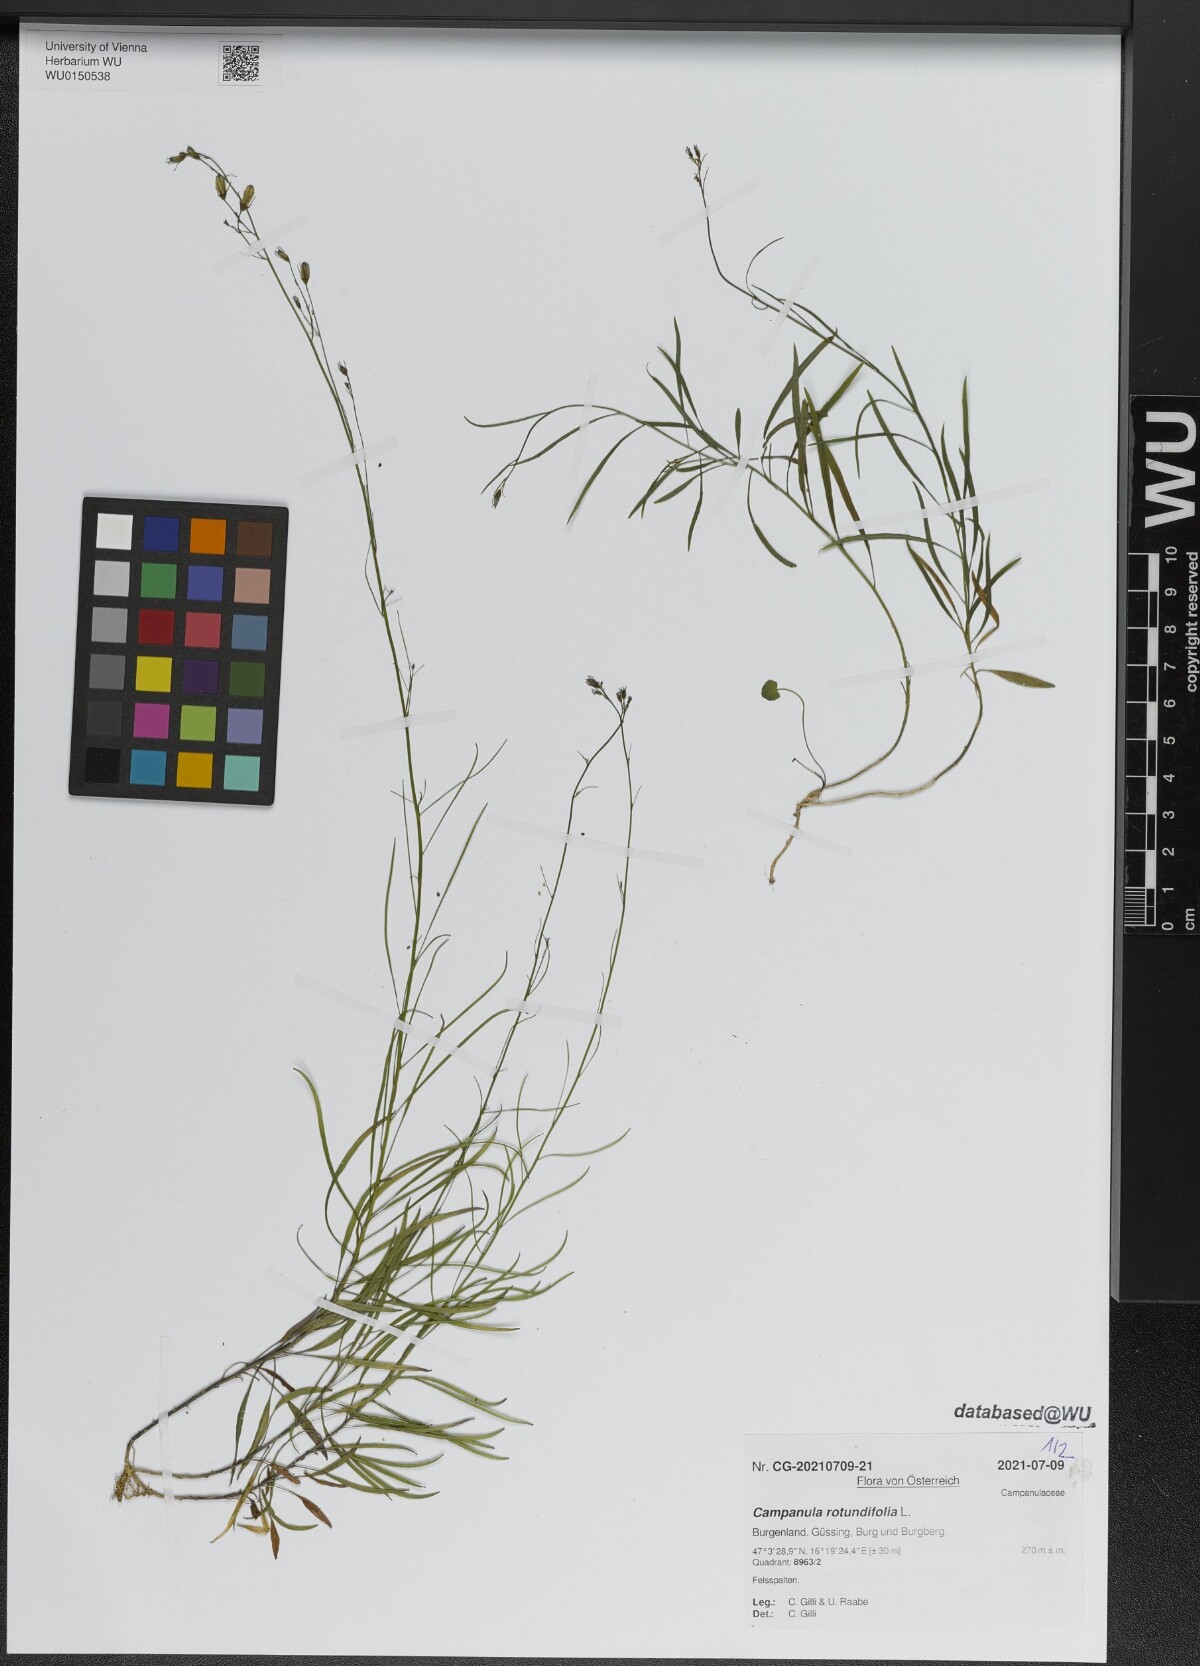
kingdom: Plantae
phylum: Tracheophyta
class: Magnoliopsida
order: Asterales
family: Campanulaceae
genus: Campanula
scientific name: Campanula rotundifolia
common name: Harebell
